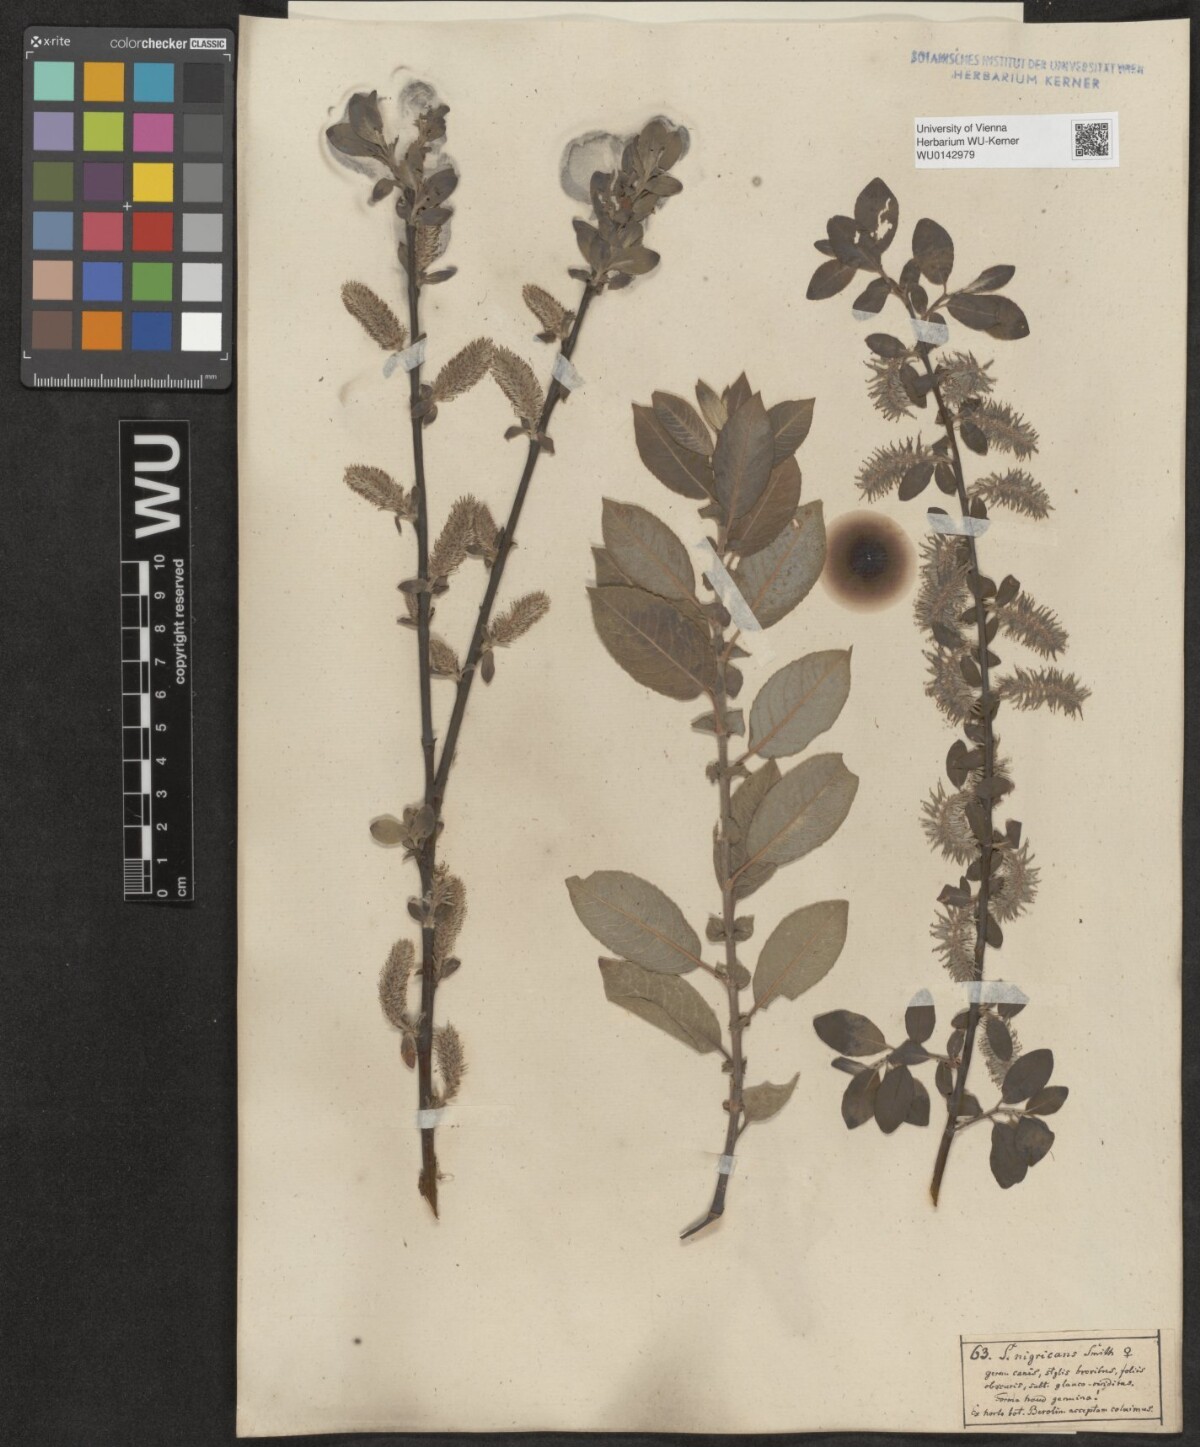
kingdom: Plantae
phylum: Tracheophyta
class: Magnoliopsida
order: Malpighiales
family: Salicaceae
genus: Salix
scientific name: Salix myrsinifolia
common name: Dark-leaved willow
